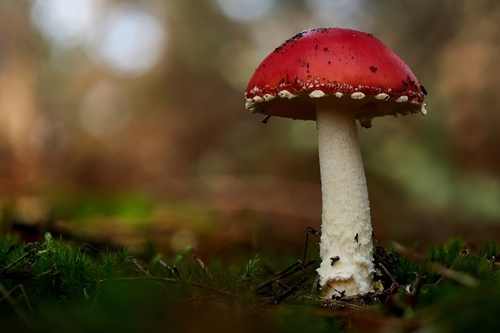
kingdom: Fungi
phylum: Basidiomycota
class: Agaricomycetes
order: Agaricales
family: Amanitaceae
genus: Amanita
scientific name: Amanita muscaria
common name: Fly agaric
